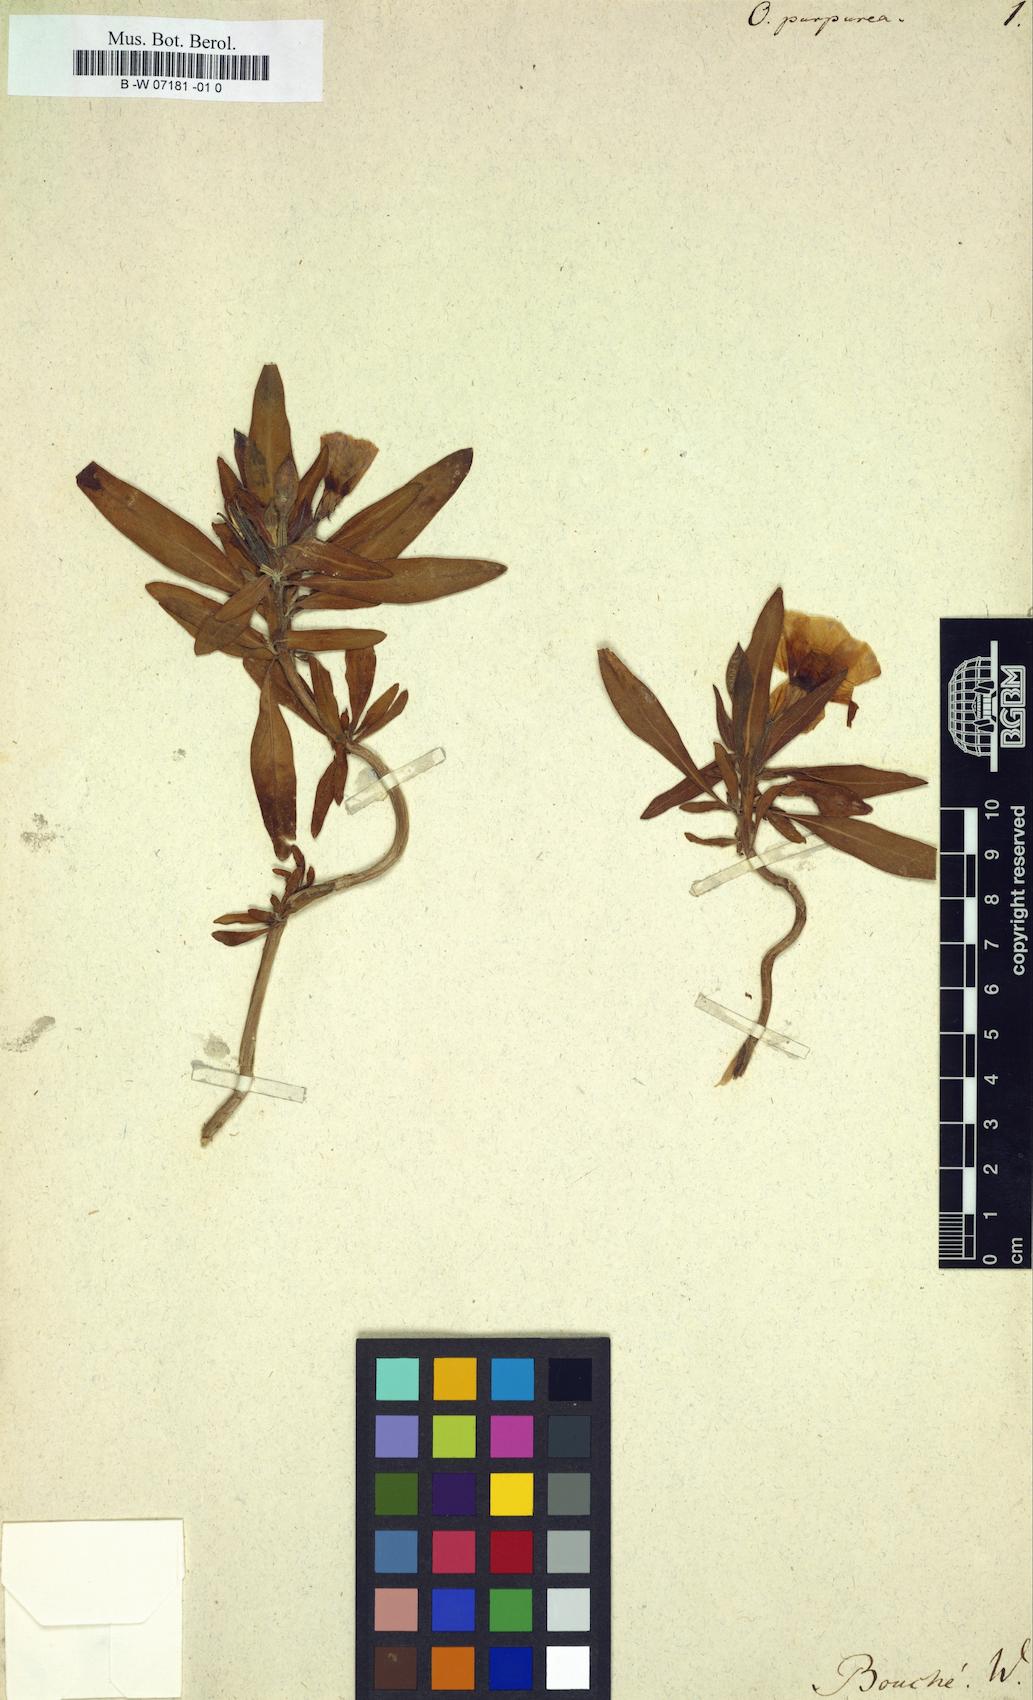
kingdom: Plantae
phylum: Tracheophyta
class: Magnoliopsida
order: Myrtales
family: Onagraceae
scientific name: Onagraceae
